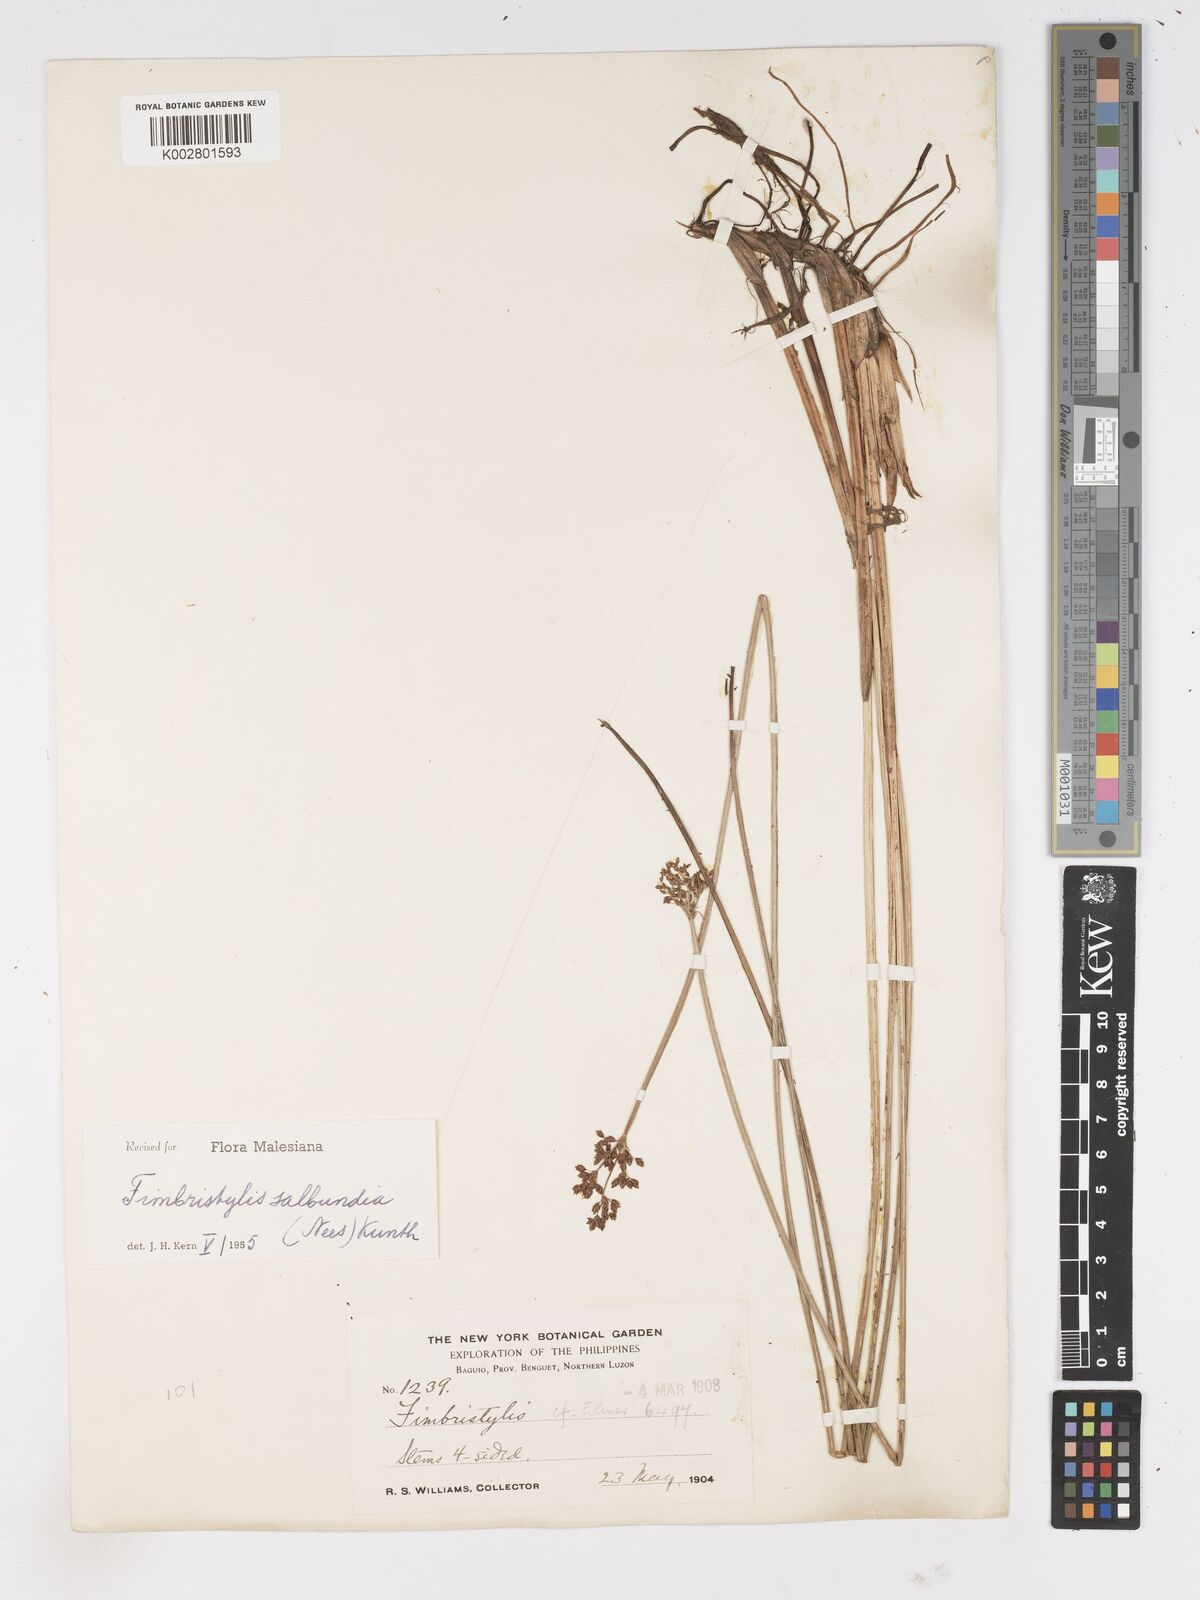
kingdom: Plantae
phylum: Tracheophyta
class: Liliopsida
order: Poales
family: Cyperaceae
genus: Fimbristylis
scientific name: Fimbristylis salbundia
